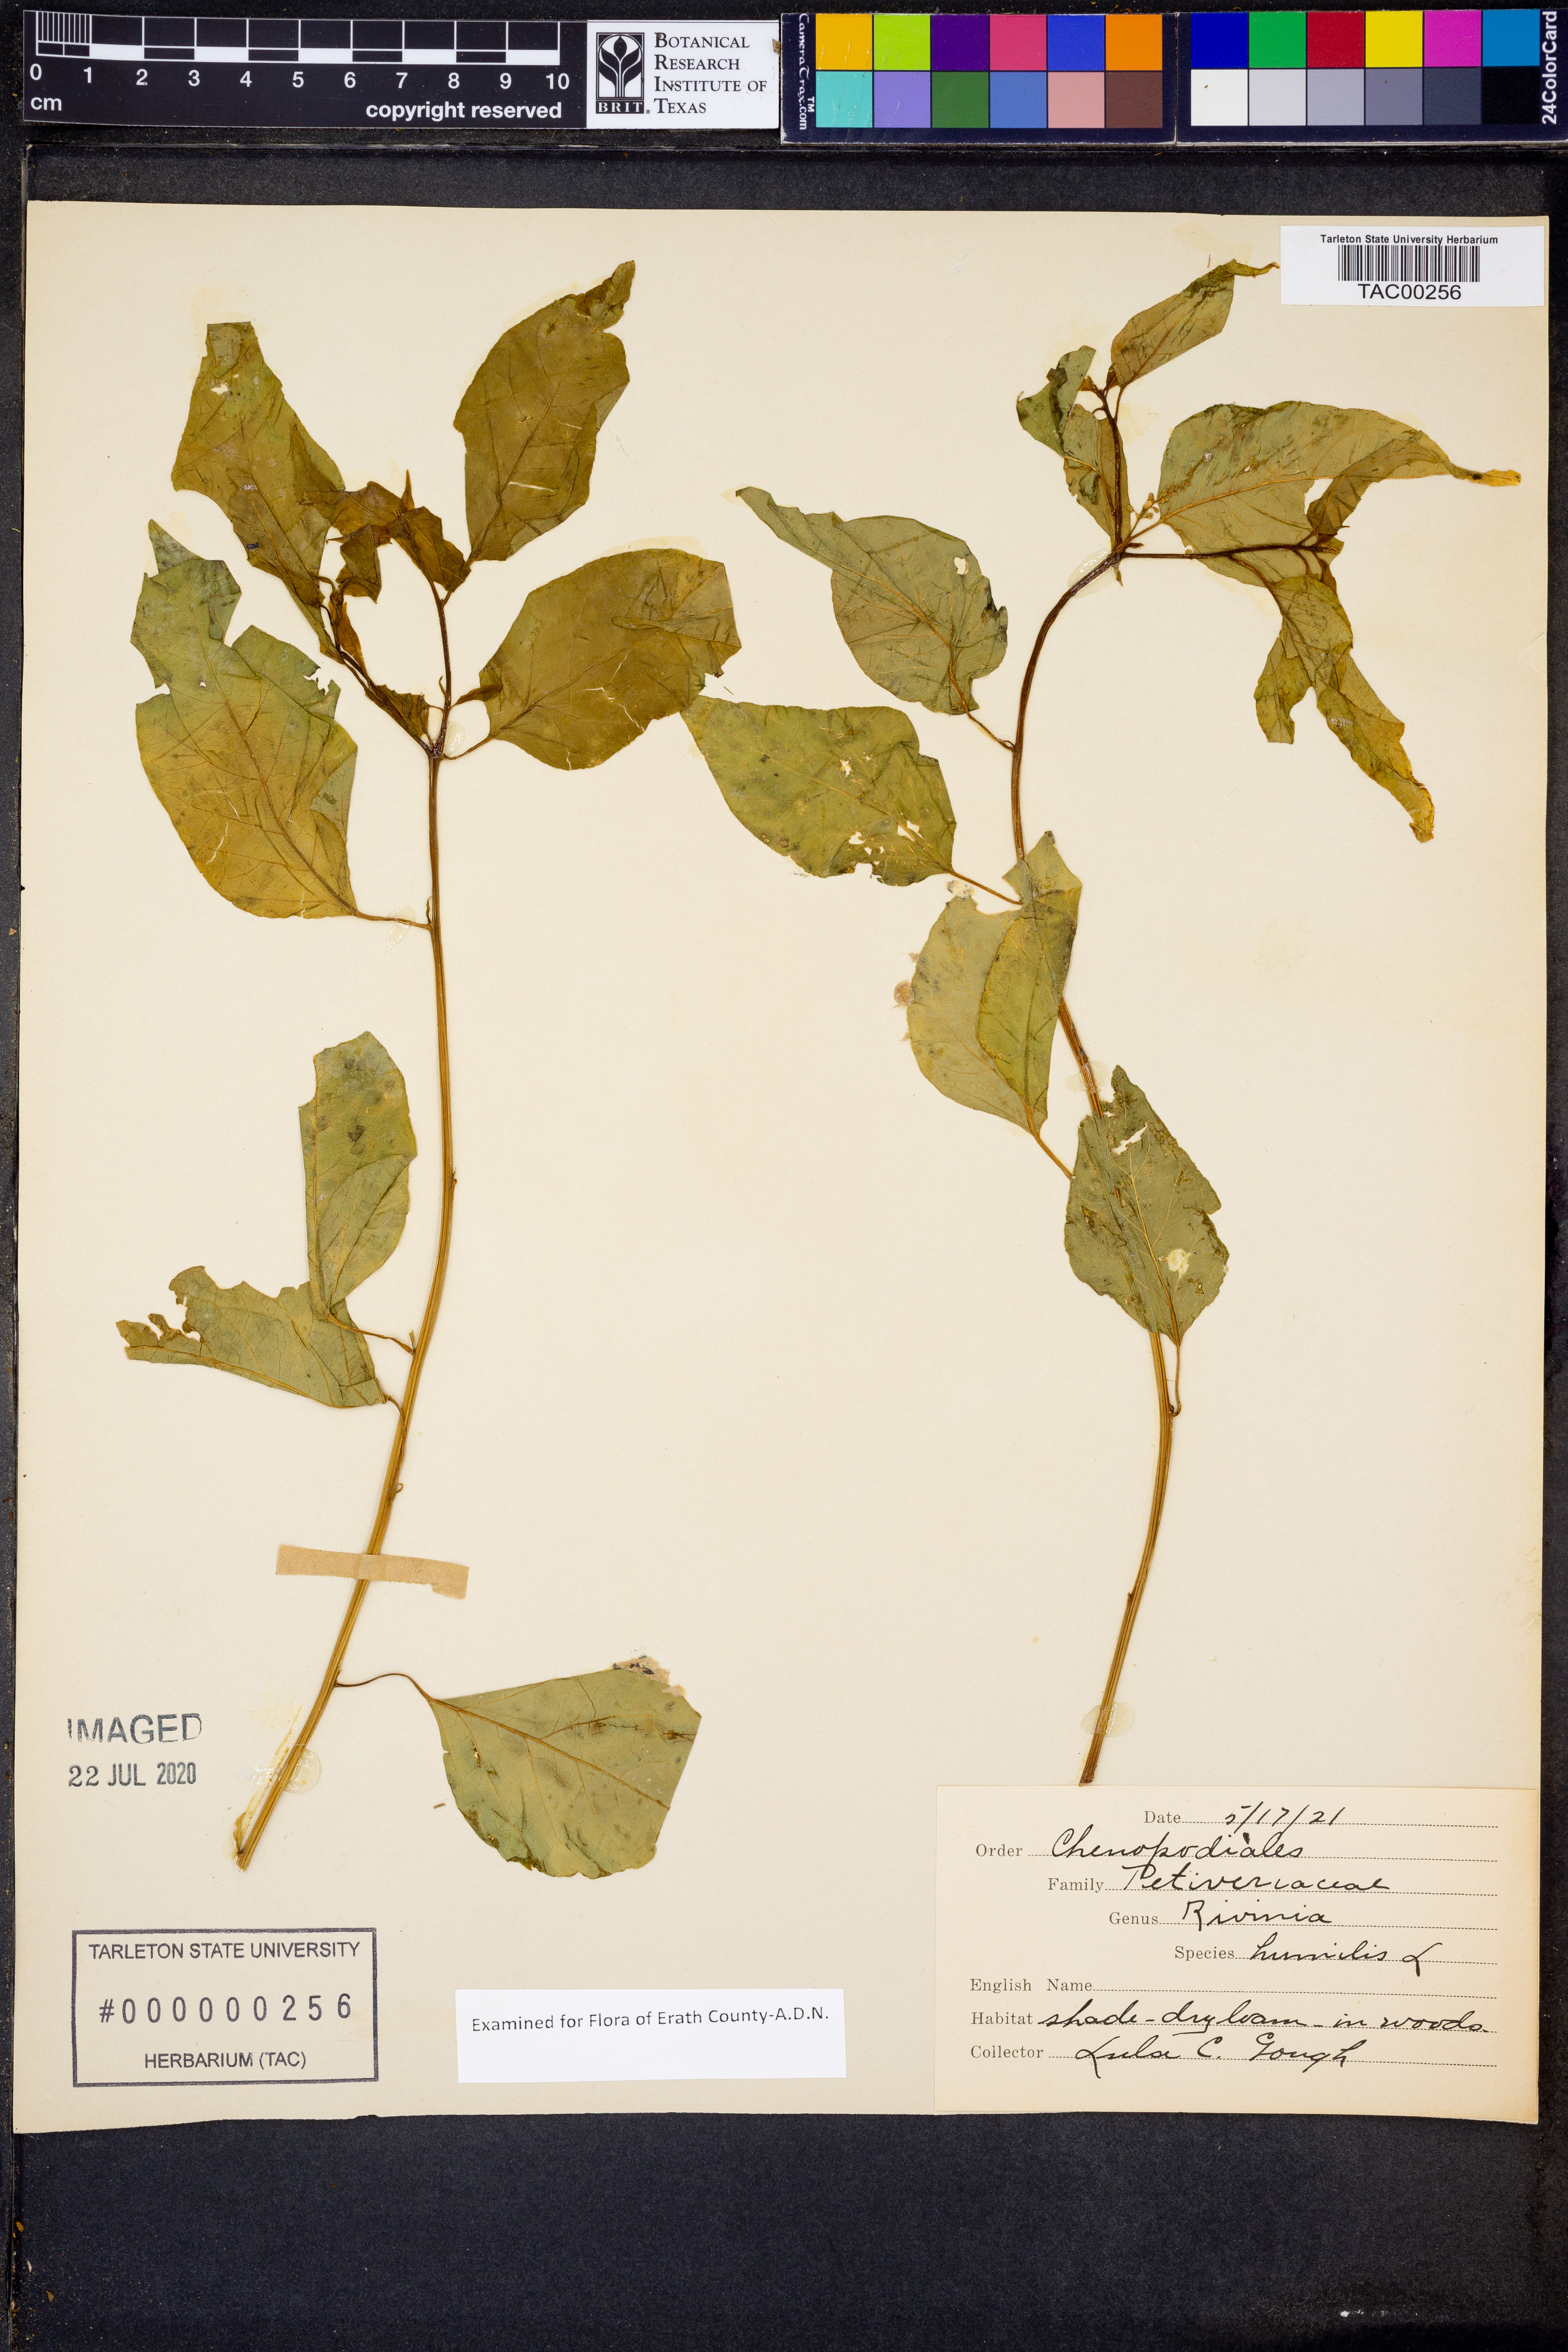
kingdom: Plantae
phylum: Tracheophyta
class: Magnoliopsida
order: Caryophyllales
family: Phytolaccaceae
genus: Rivina
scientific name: Rivina humilis
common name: Rougeplant
